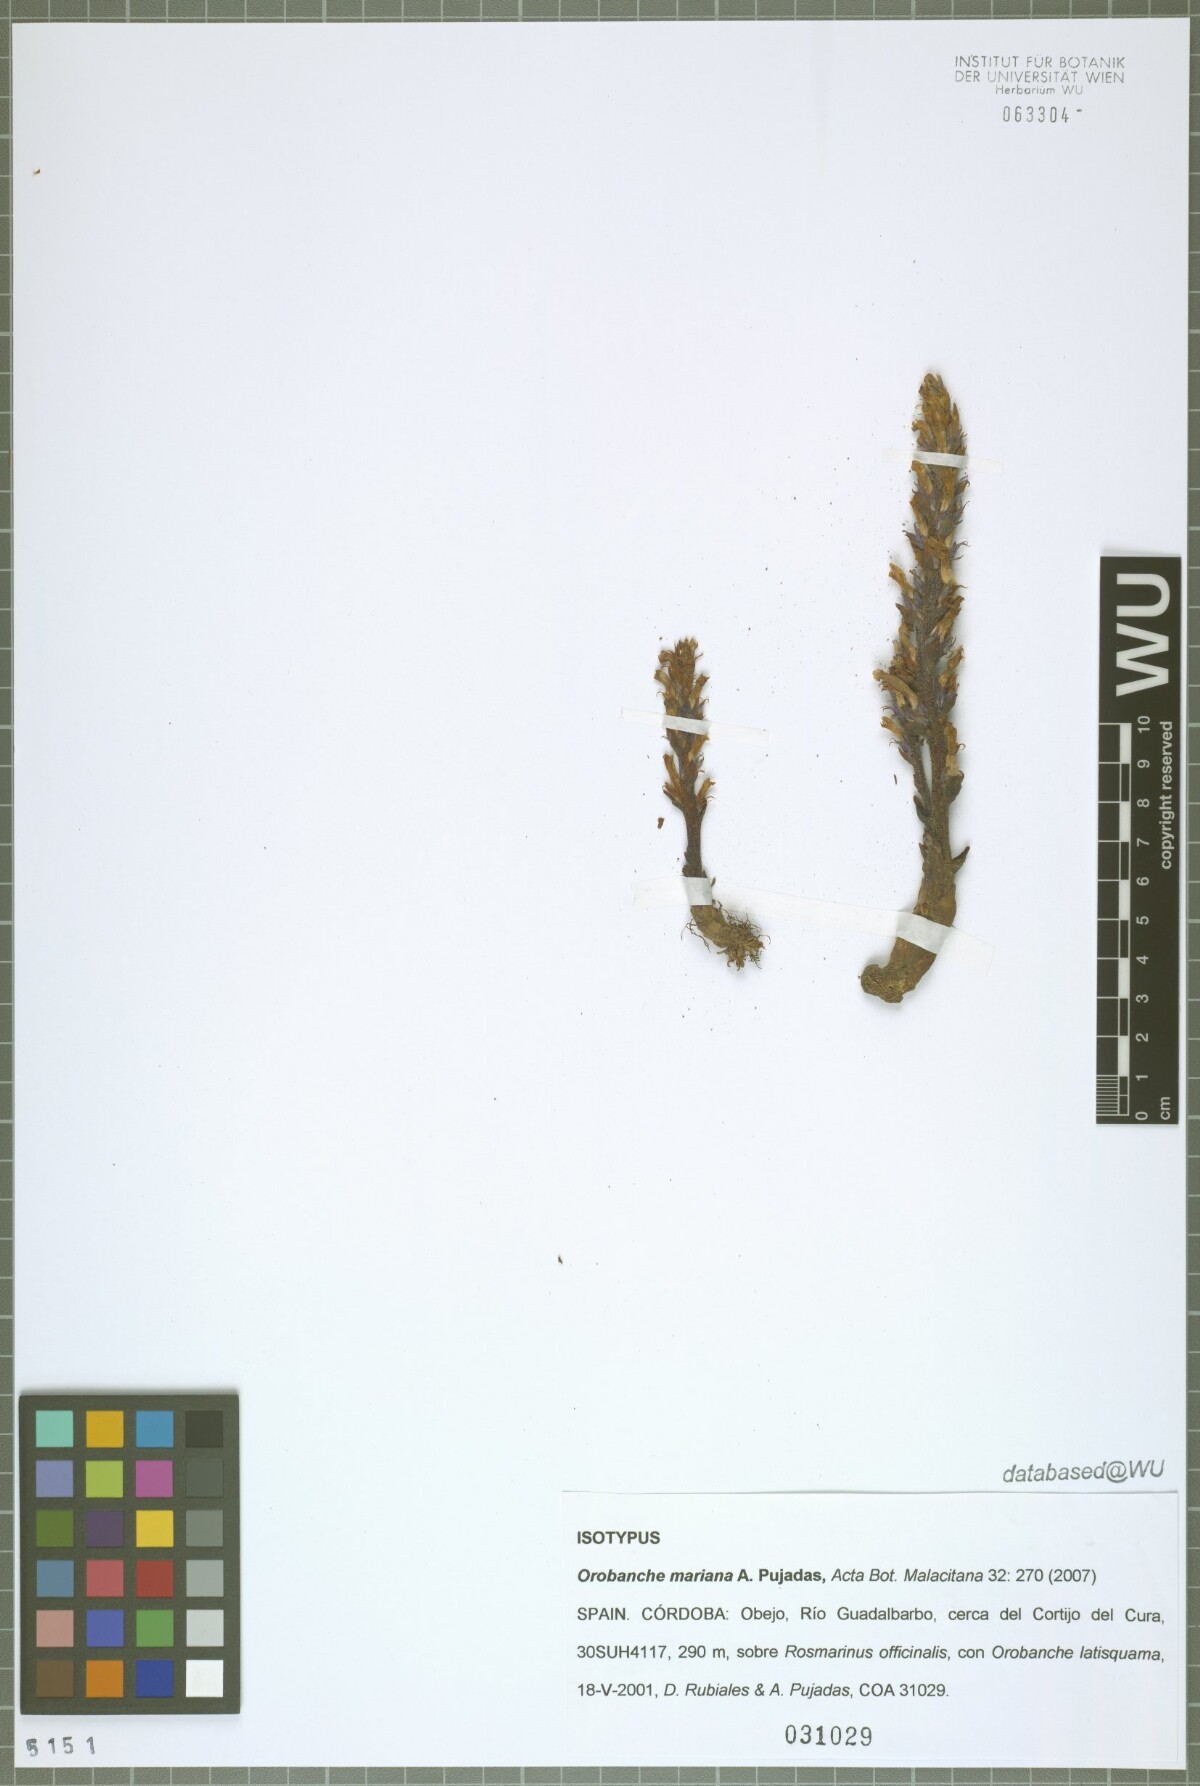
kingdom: Plantae
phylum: Tracheophyta
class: Magnoliopsida
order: Lamiales
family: Orobanchaceae
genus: Phelipanche
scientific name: Phelipanche rosmarina
